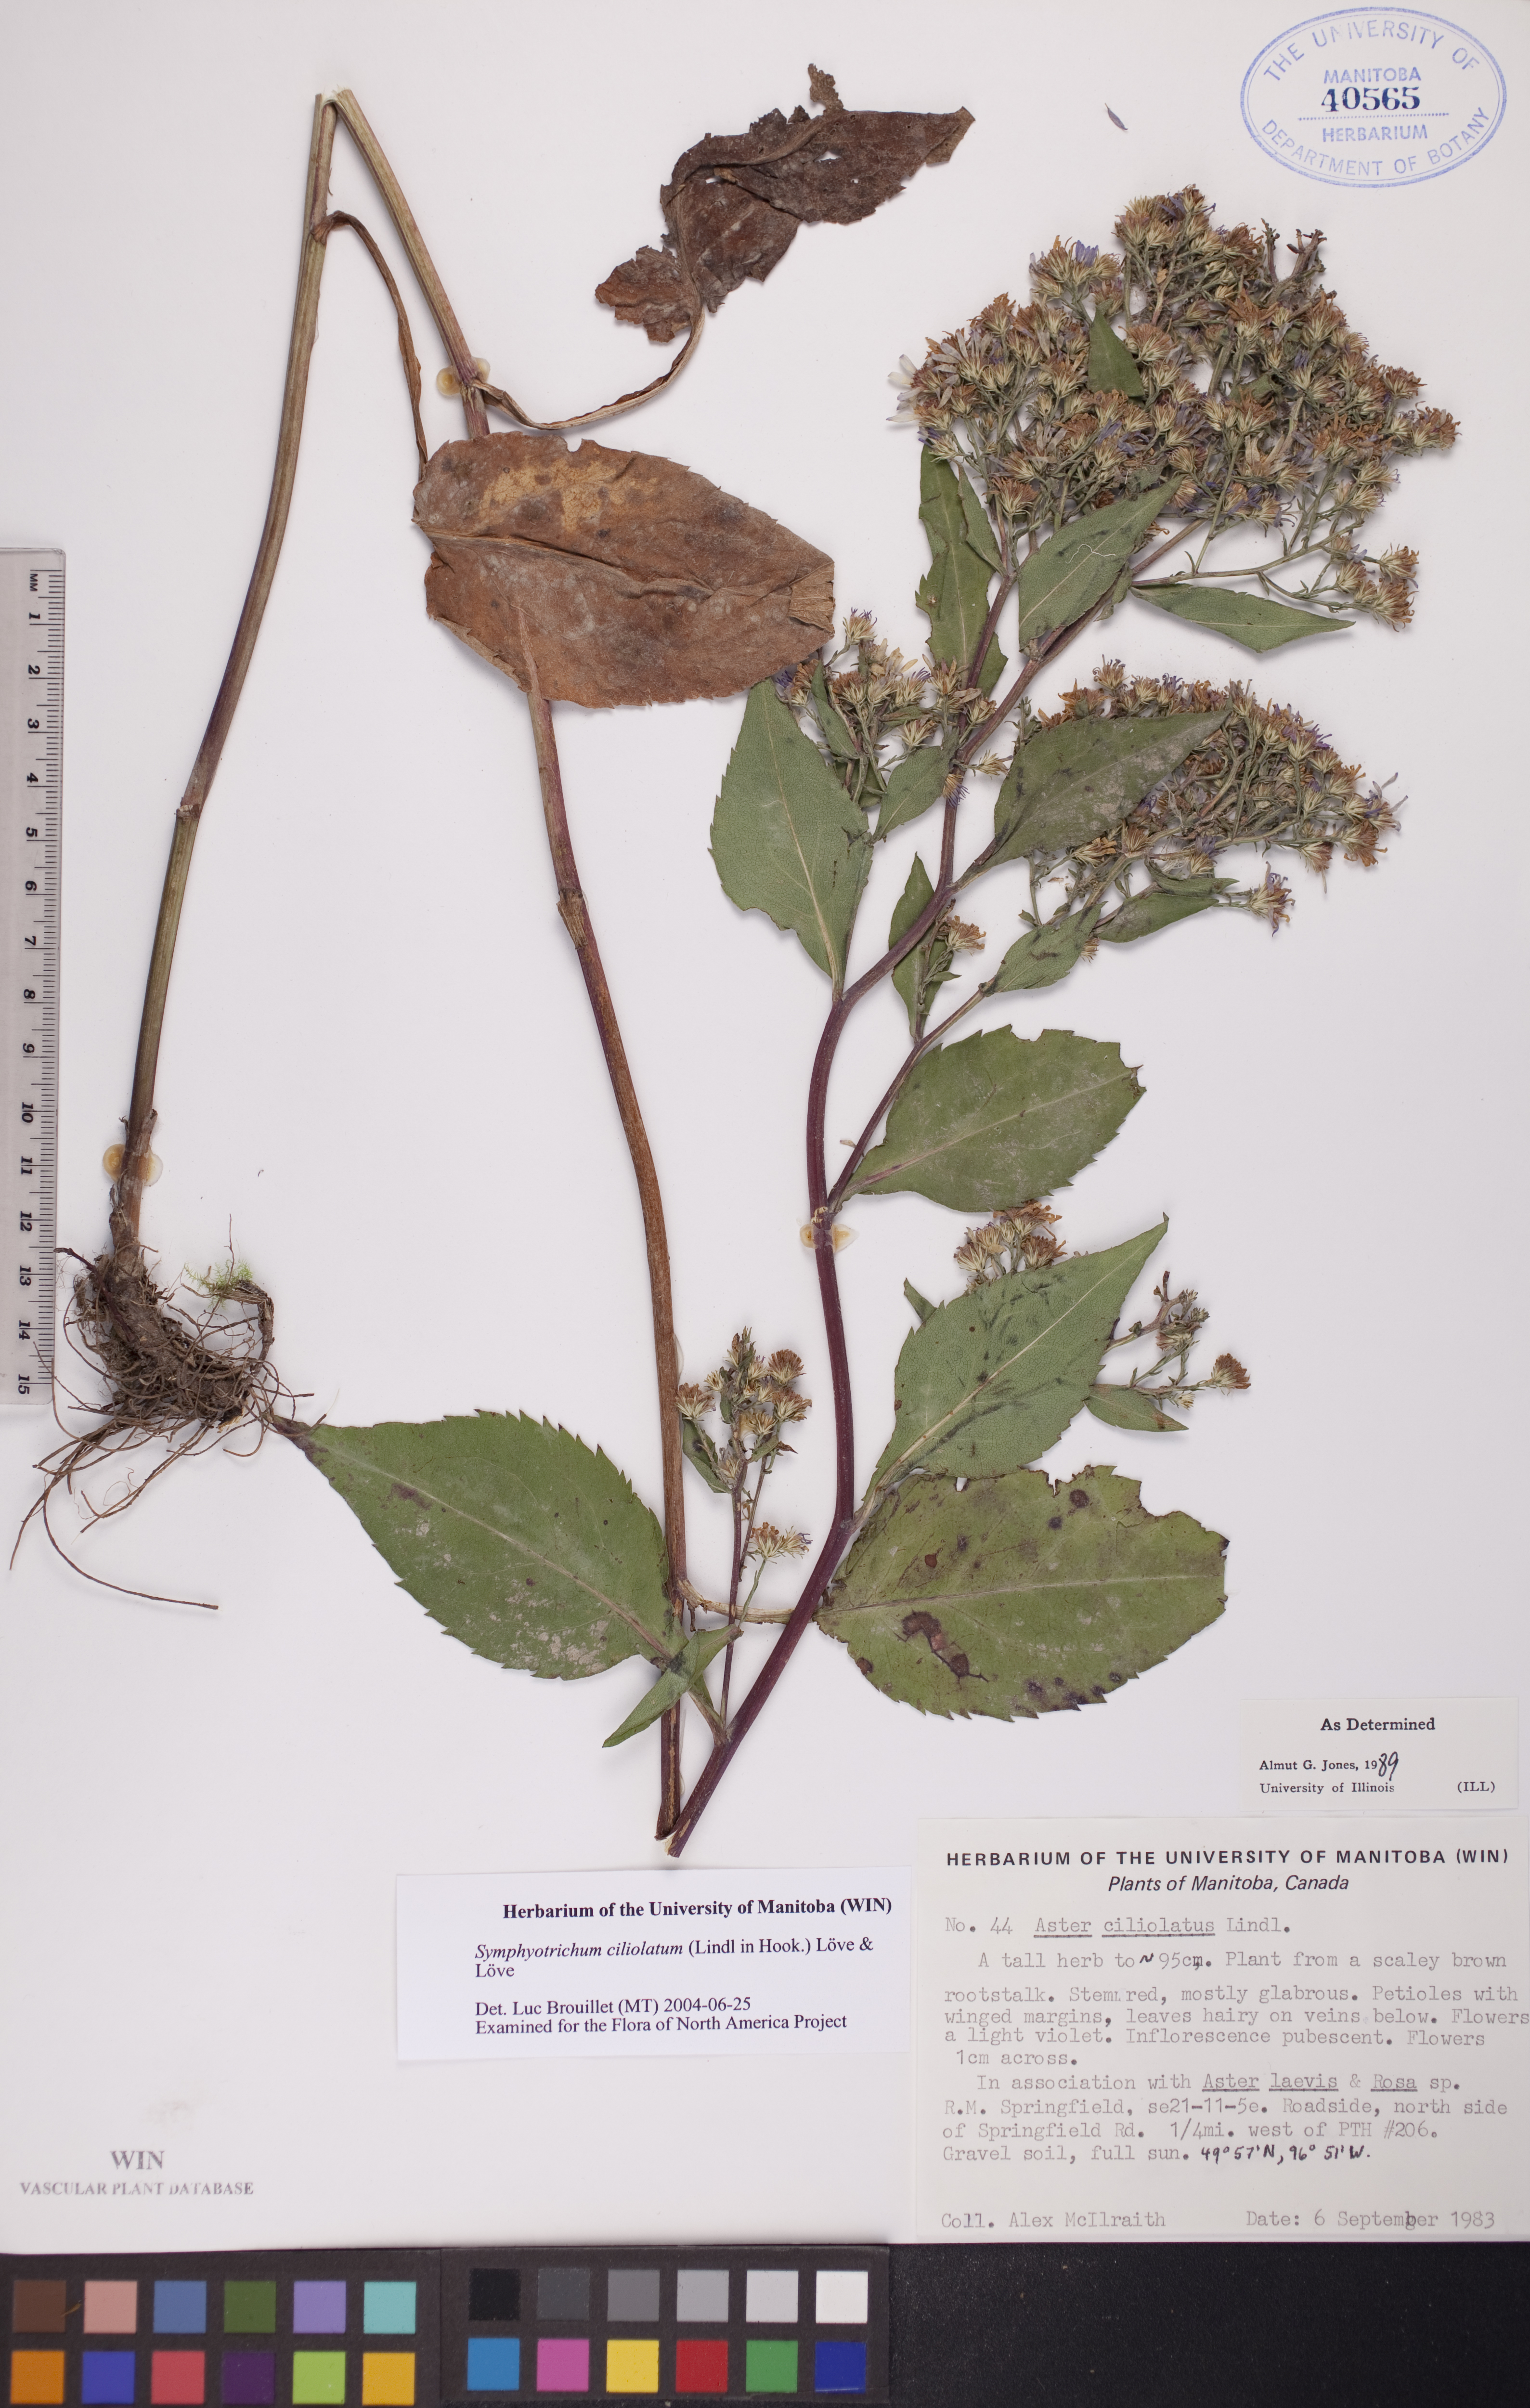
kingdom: Plantae
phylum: Tracheophyta
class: Magnoliopsida
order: Asterales
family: Asteraceae
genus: Symphyotrichum
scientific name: Symphyotrichum ciliolatum
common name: Fringed blue aster
